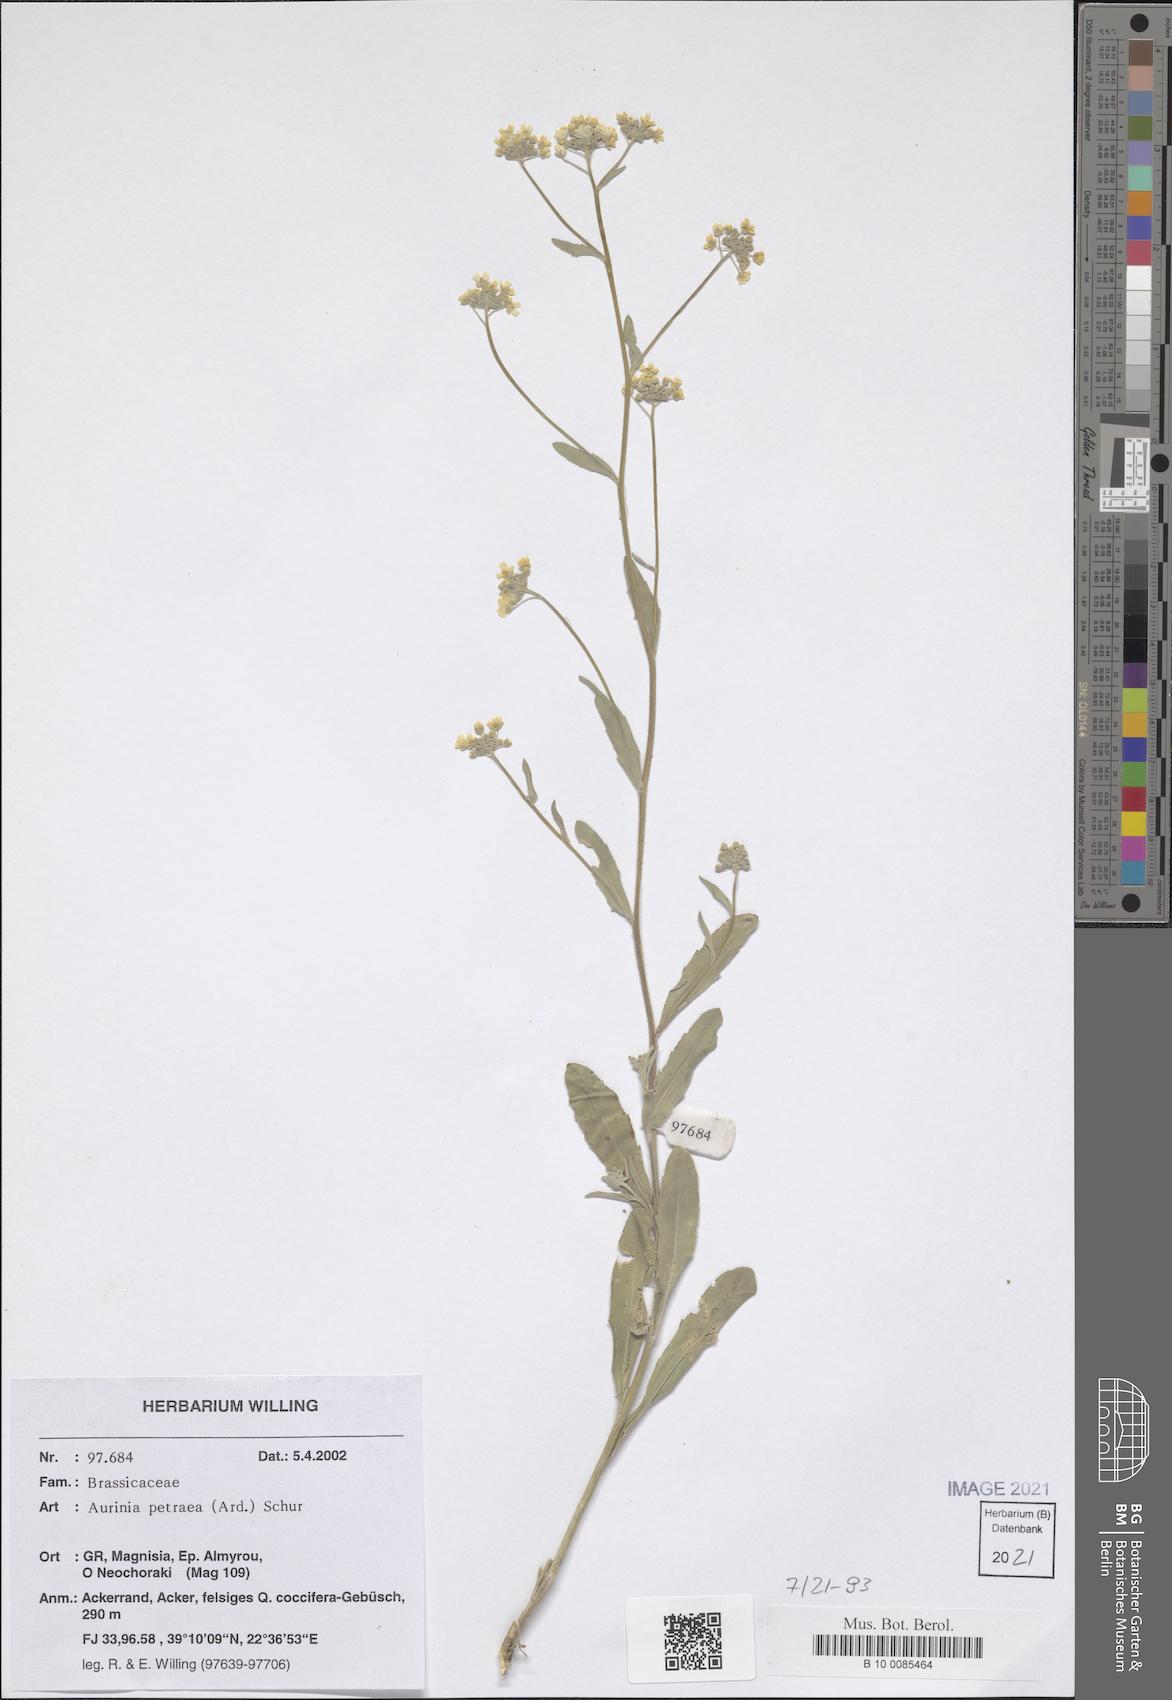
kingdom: Plantae
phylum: Tracheophyta
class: Magnoliopsida
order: Brassicales
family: Brassicaceae
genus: Aurinia
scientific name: Aurinia petraea
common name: Goldentuft
